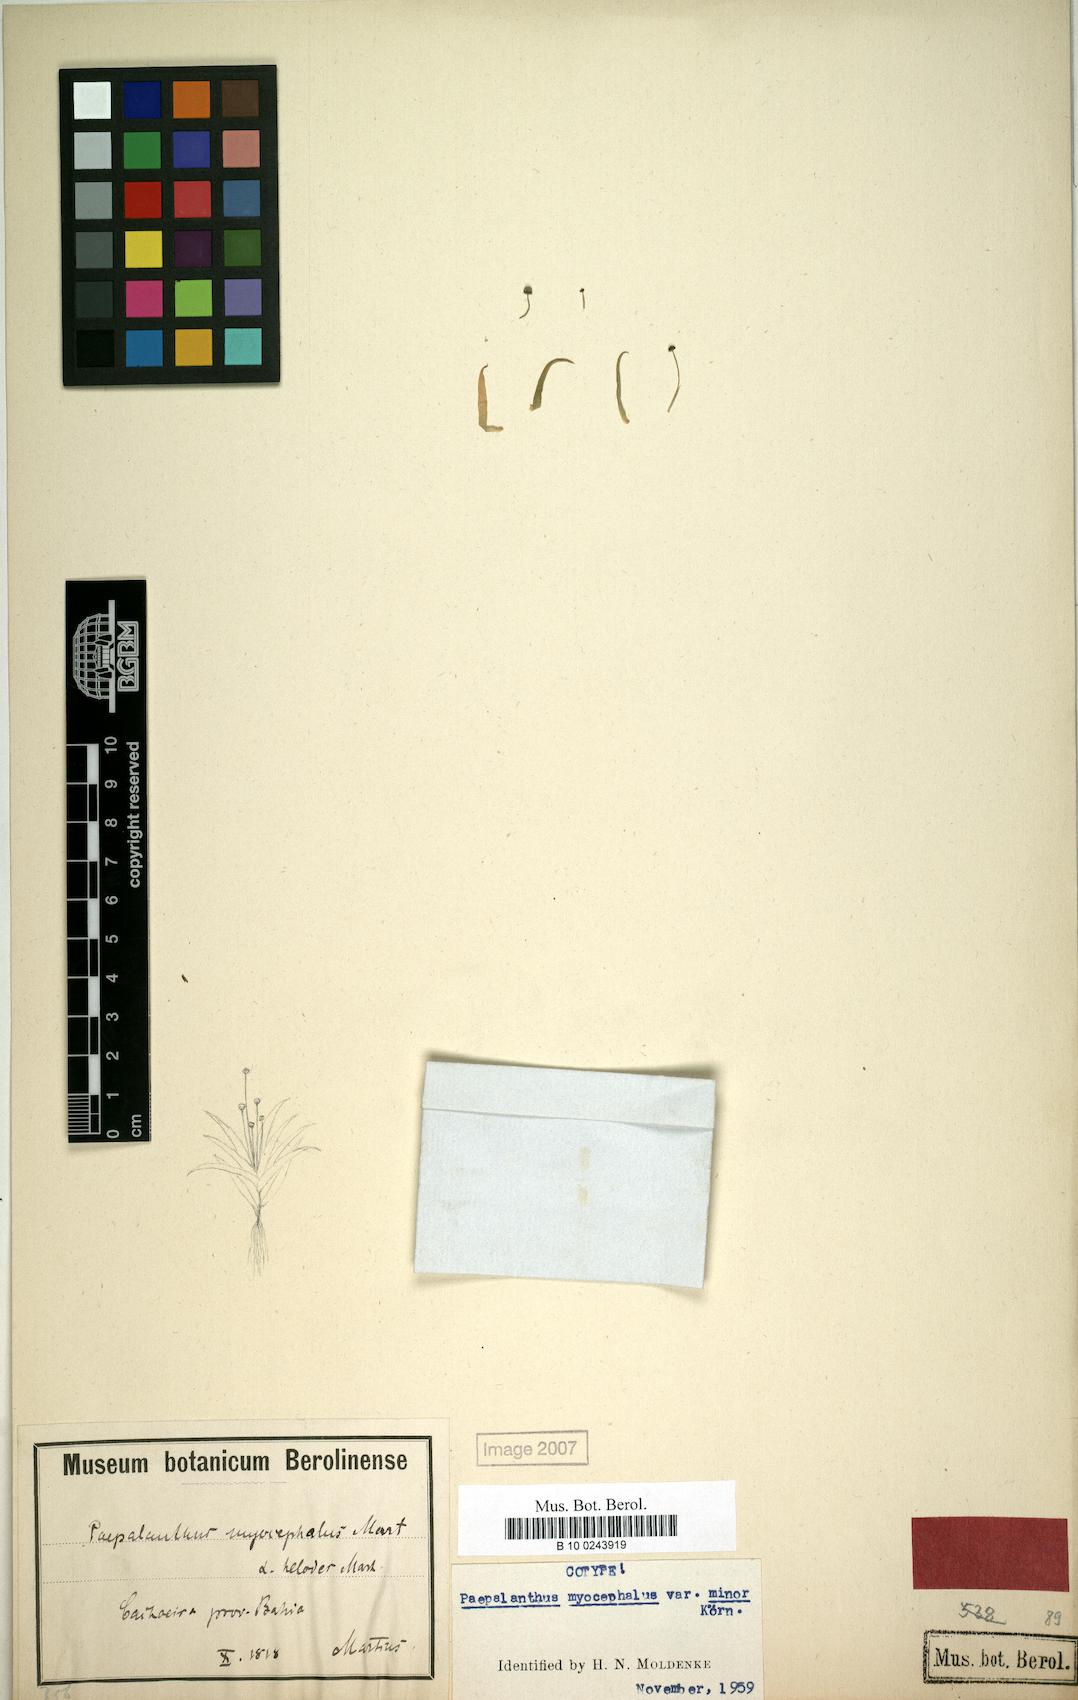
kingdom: Plantae
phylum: Tracheophyta
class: Liliopsida
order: Poales
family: Eriocaulaceae
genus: Paepalanthus
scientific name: Paepalanthus myocephalon
